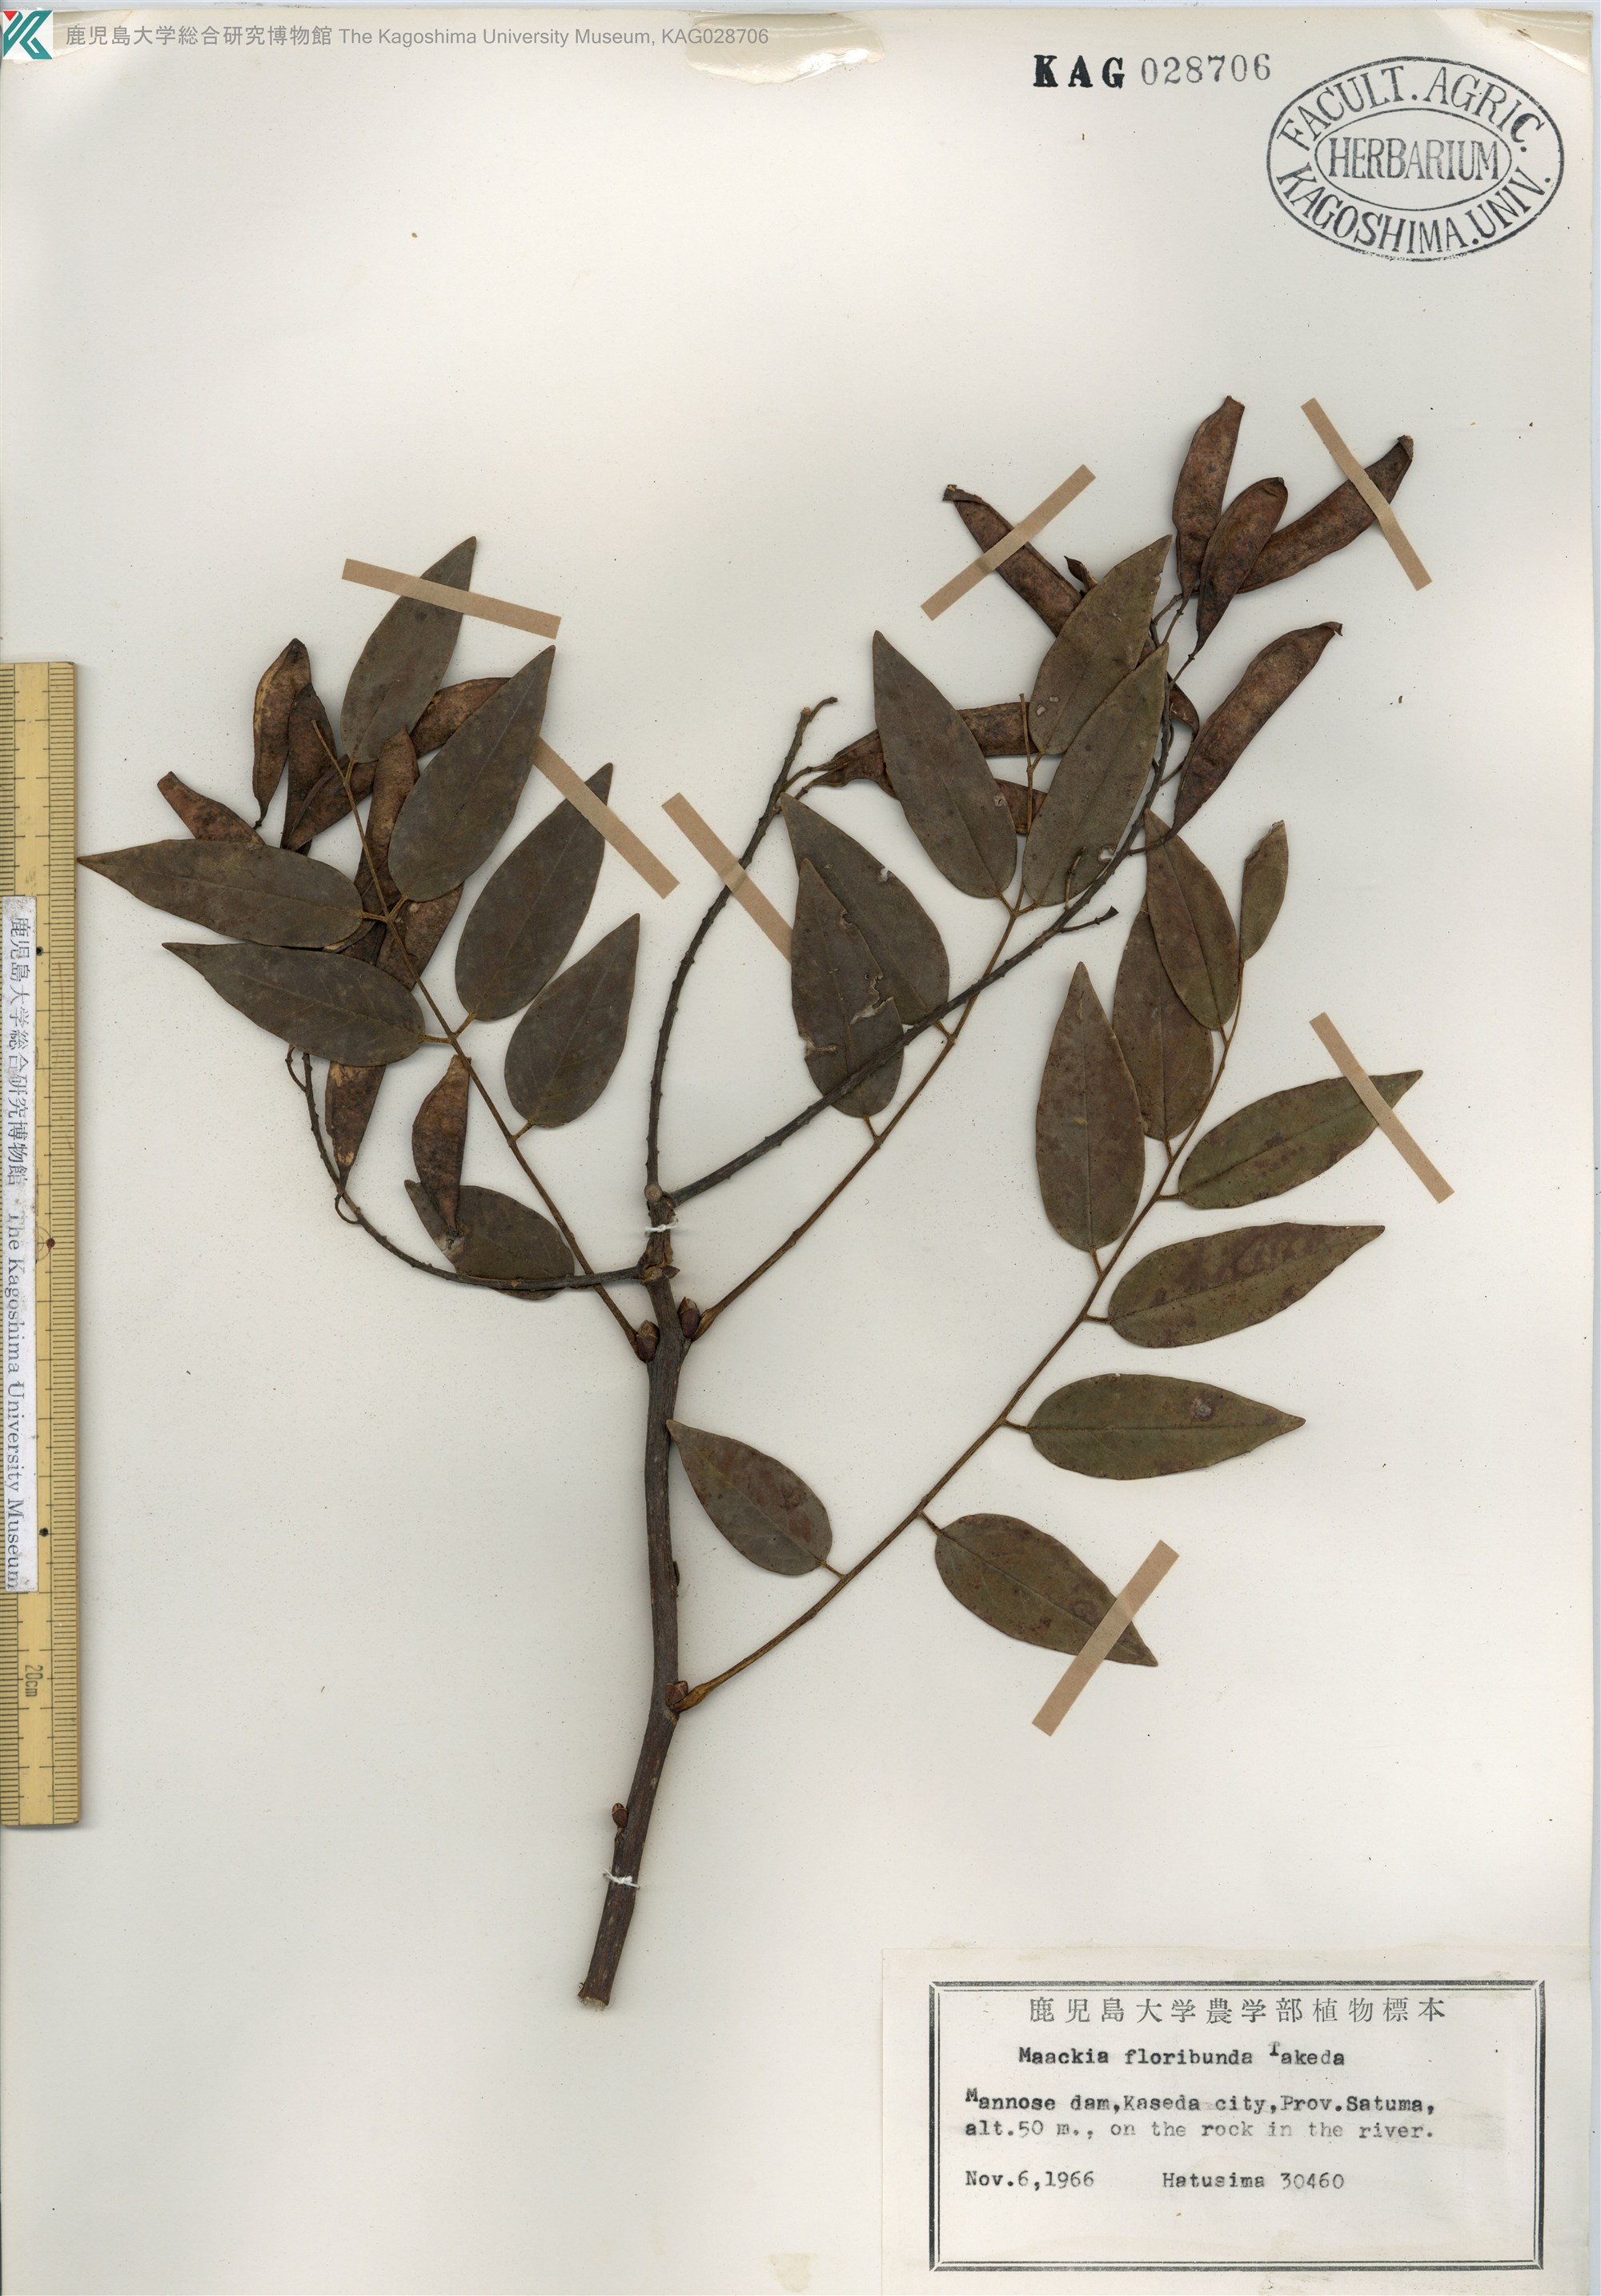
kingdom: Plantae
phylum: Tracheophyta
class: Magnoliopsida
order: Fabales
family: Fabaceae
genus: Maackia
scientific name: Maackia amurensis
